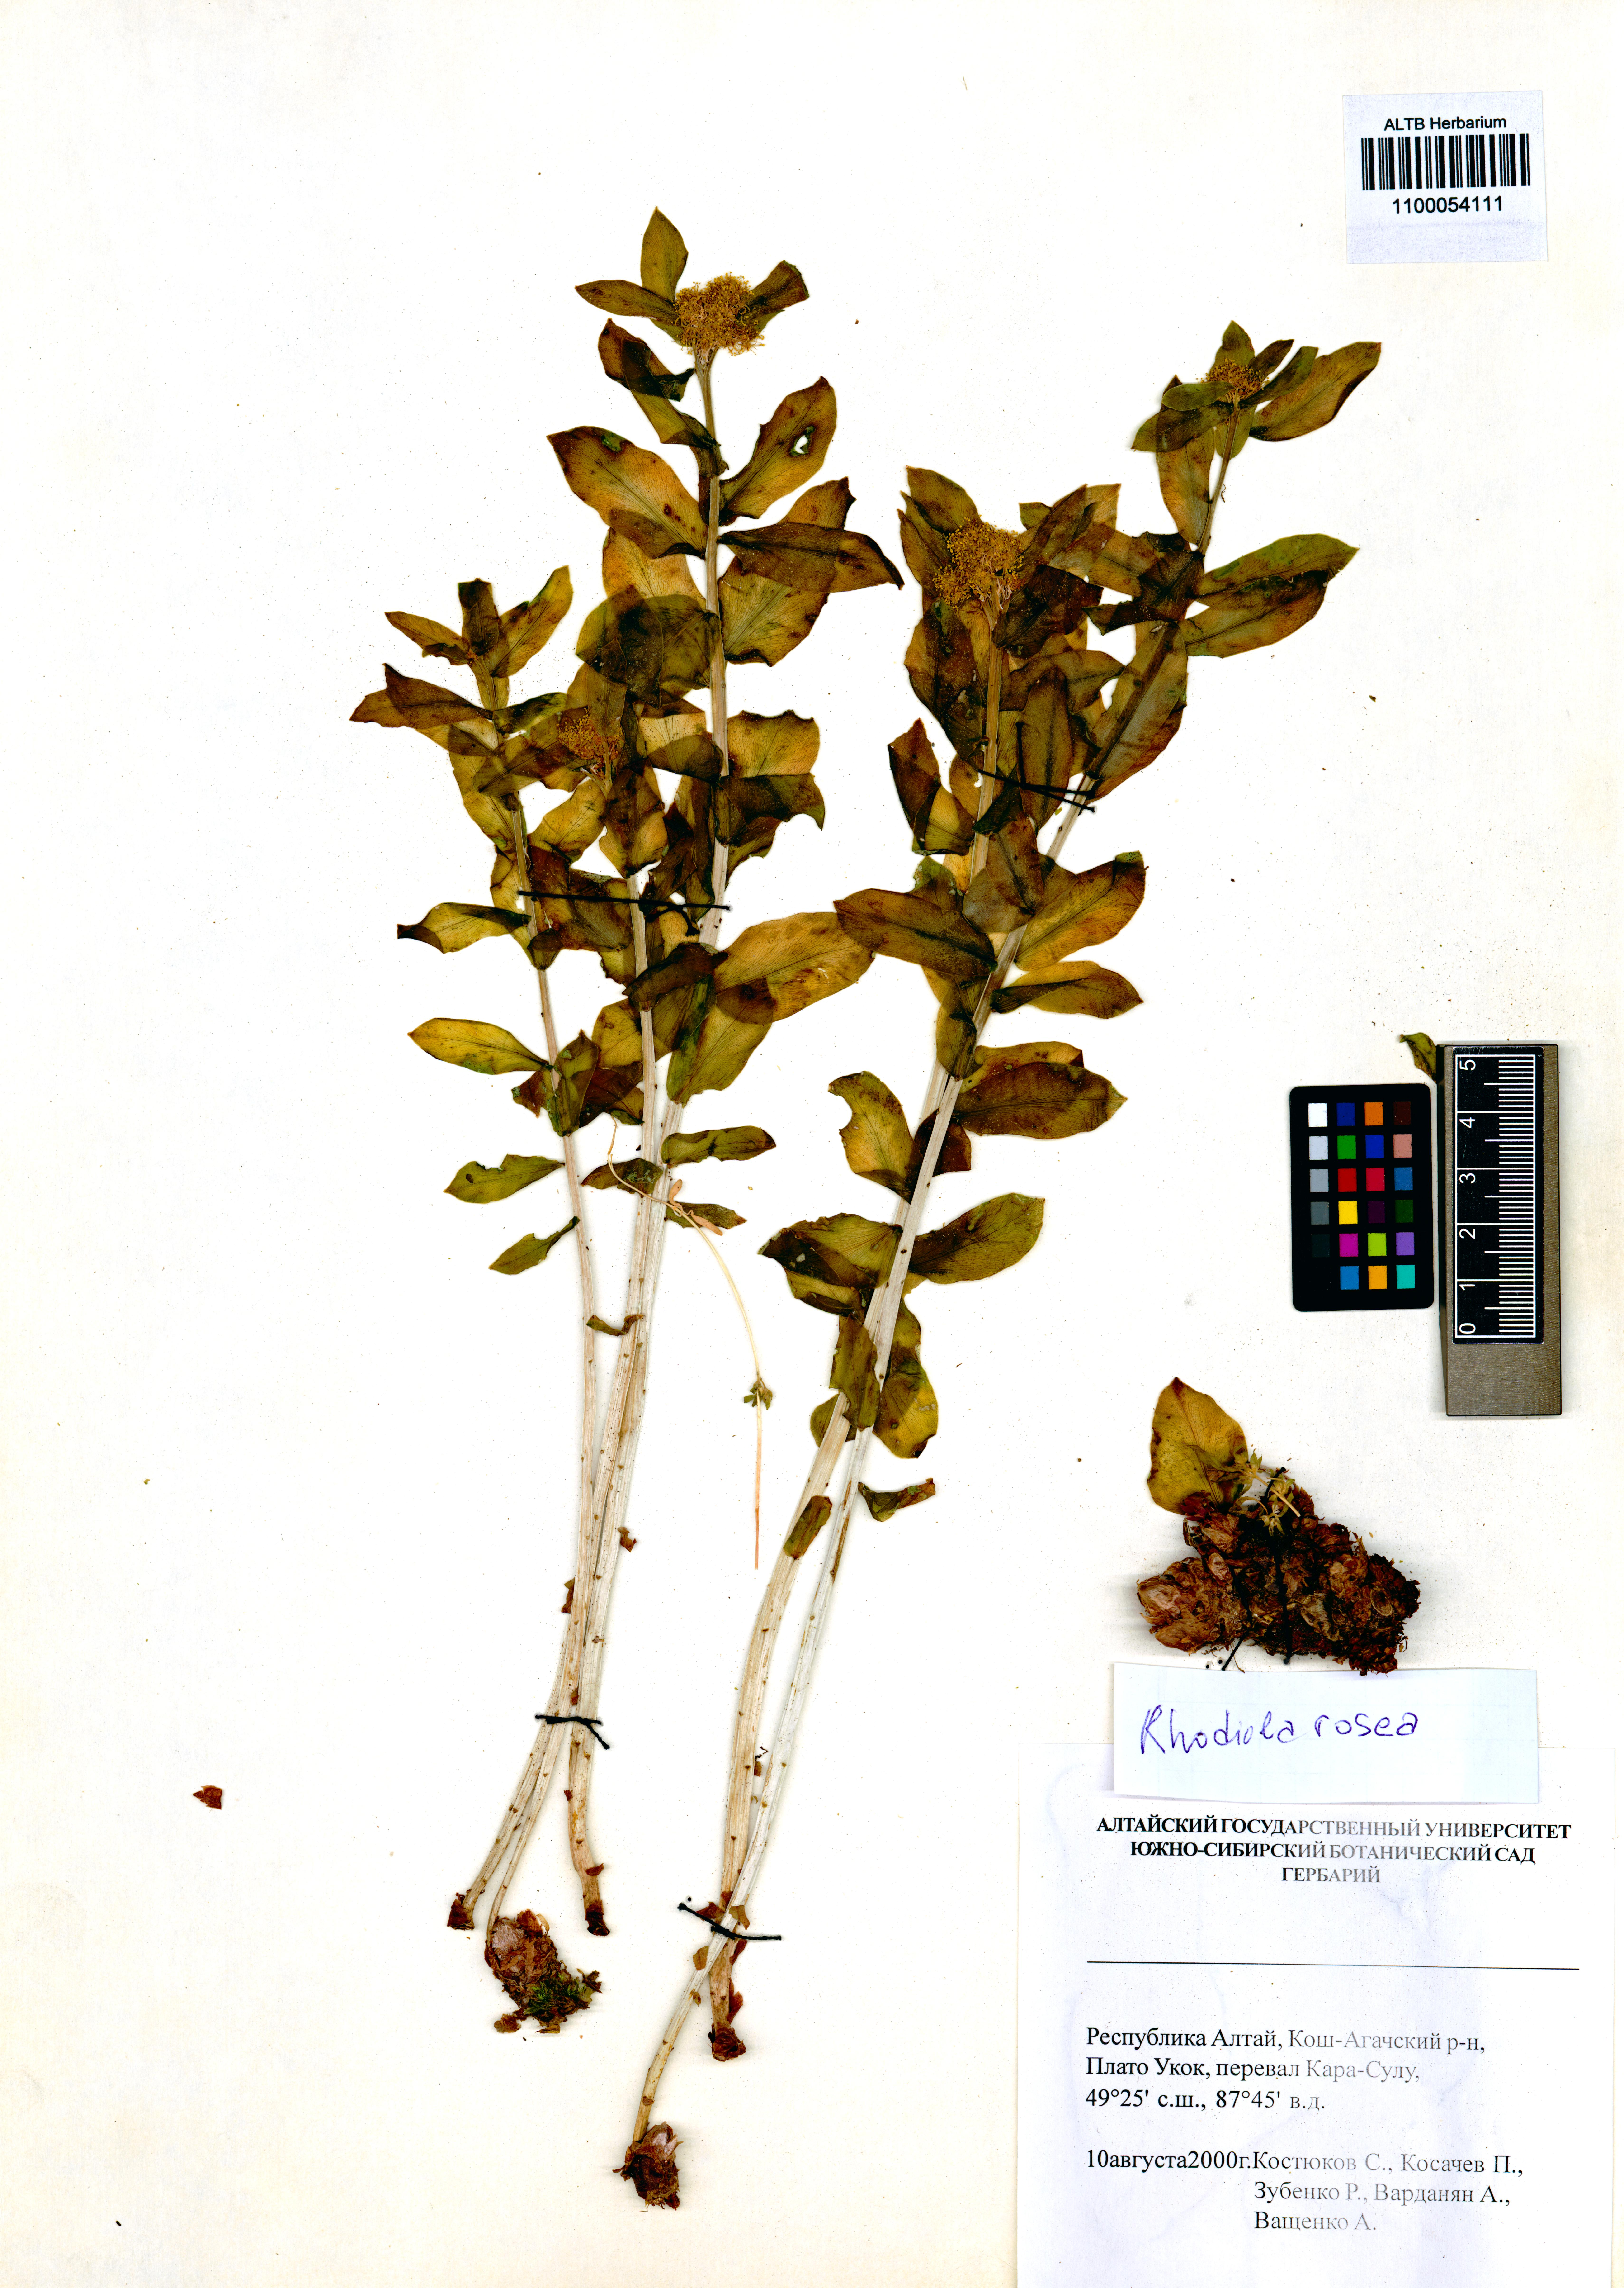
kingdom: Plantae
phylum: Tracheophyta
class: Magnoliopsida
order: Saxifragales
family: Crassulaceae
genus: Rhodiola
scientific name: Rhodiola rosea
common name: Roseroot
